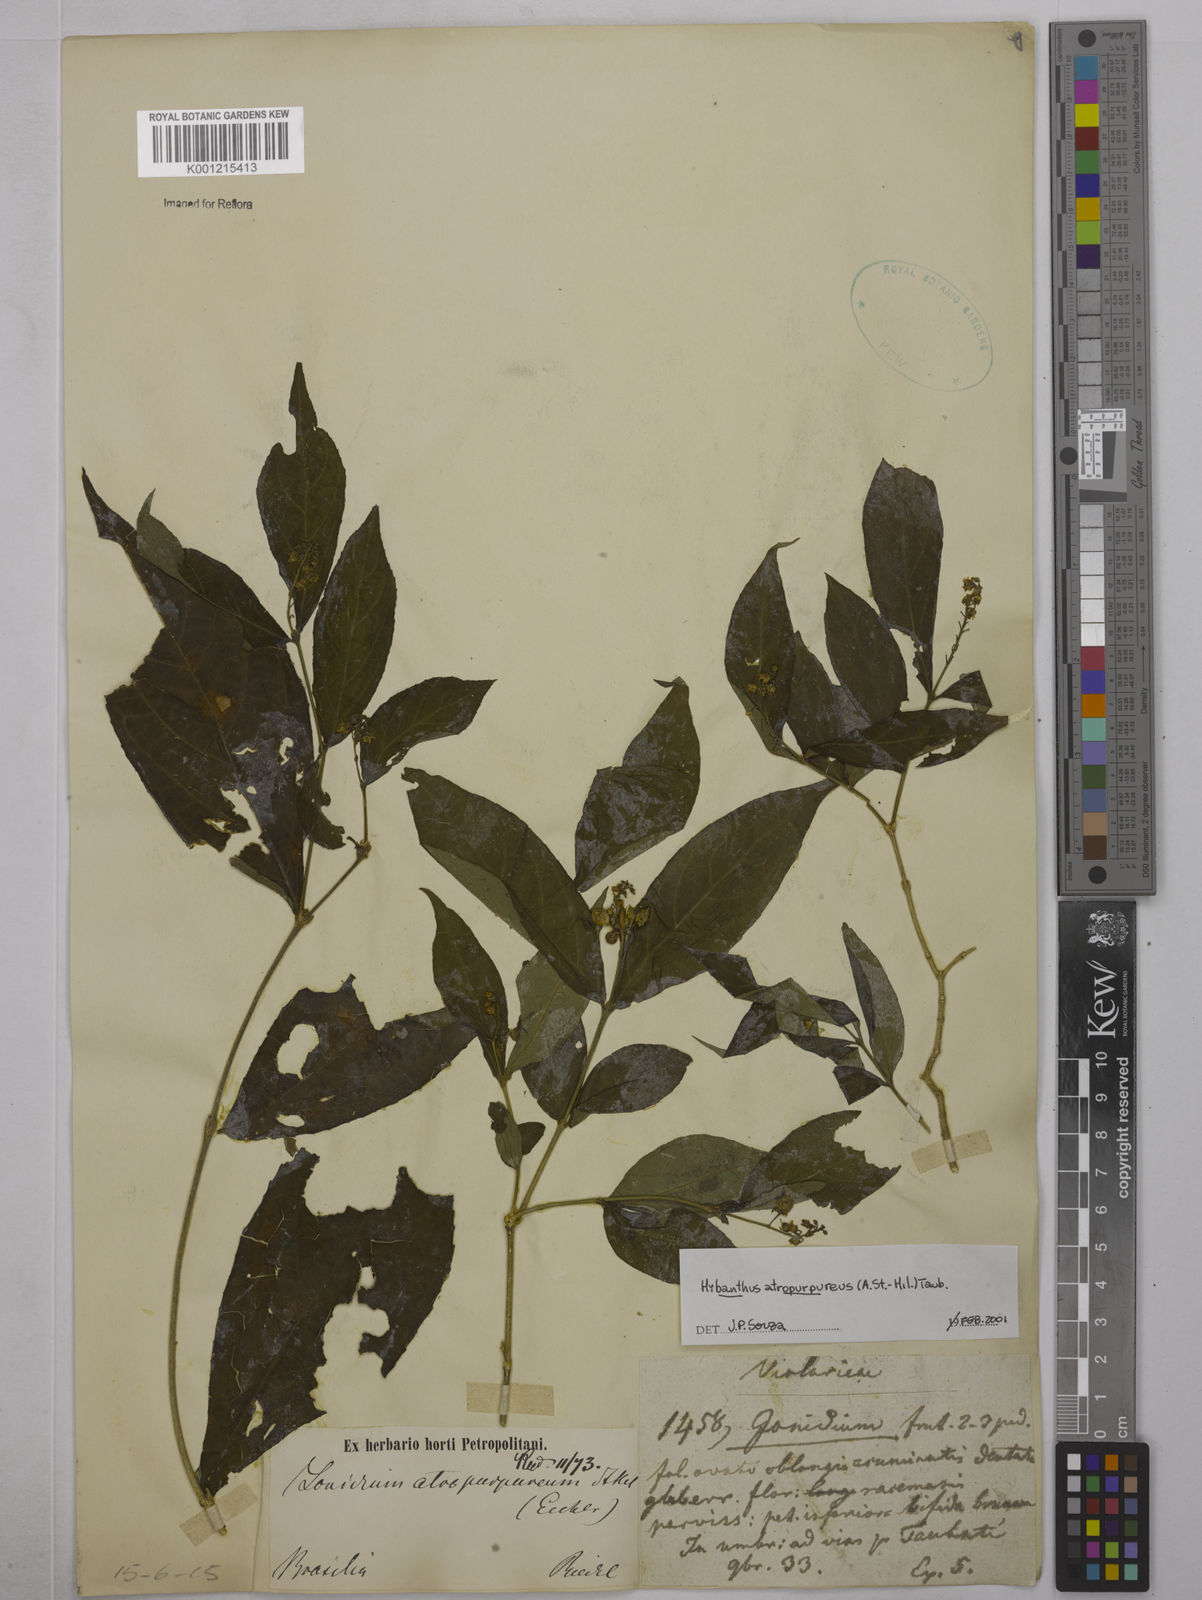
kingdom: Plantae
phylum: Tracheophyta
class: Magnoliopsida
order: Malpighiales
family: Violaceae
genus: Pombalia
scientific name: Pombalia atropurpurea
